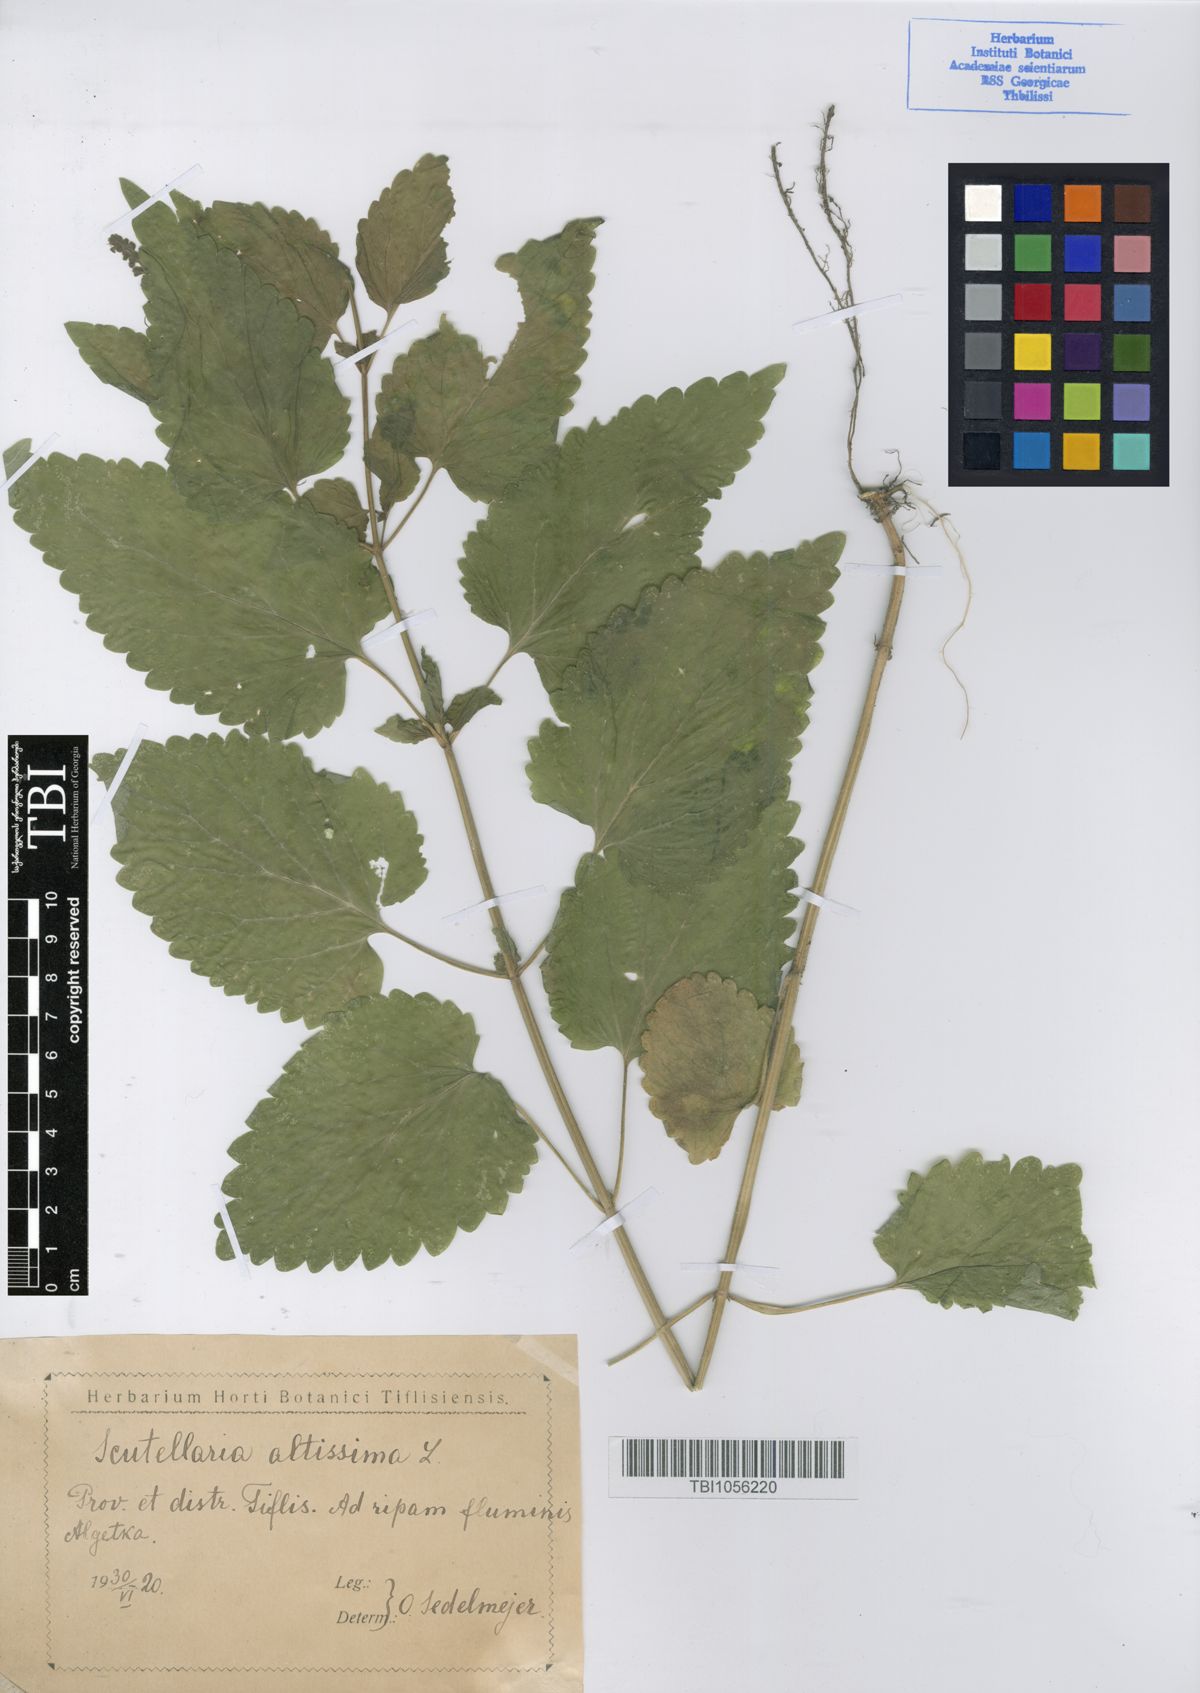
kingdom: Plantae
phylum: Tracheophyta
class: Magnoliopsida
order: Lamiales
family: Lamiaceae
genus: Scutellaria
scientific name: Scutellaria altissima
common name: Somerset skullcap
